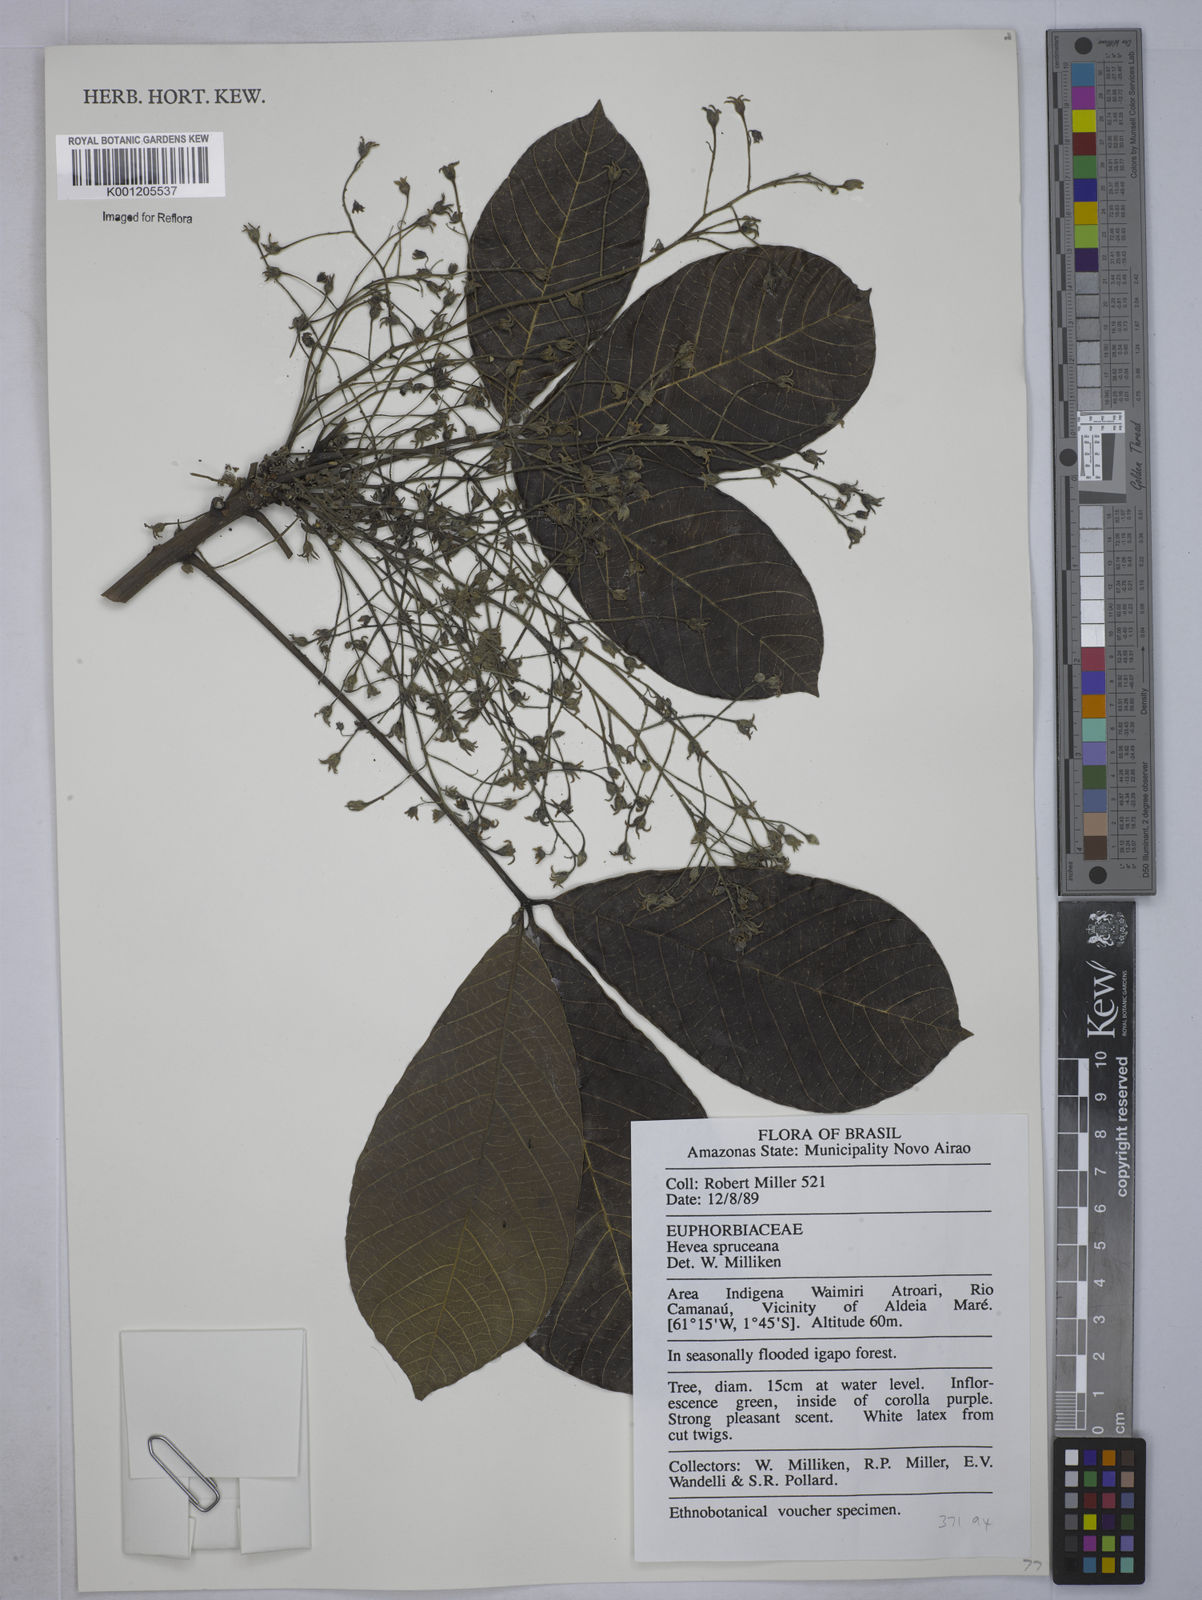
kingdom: Plantae
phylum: Tracheophyta
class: Magnoliopsida
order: Malpighiales
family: Euphorbiaceae
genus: Hevea
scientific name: Hevea
